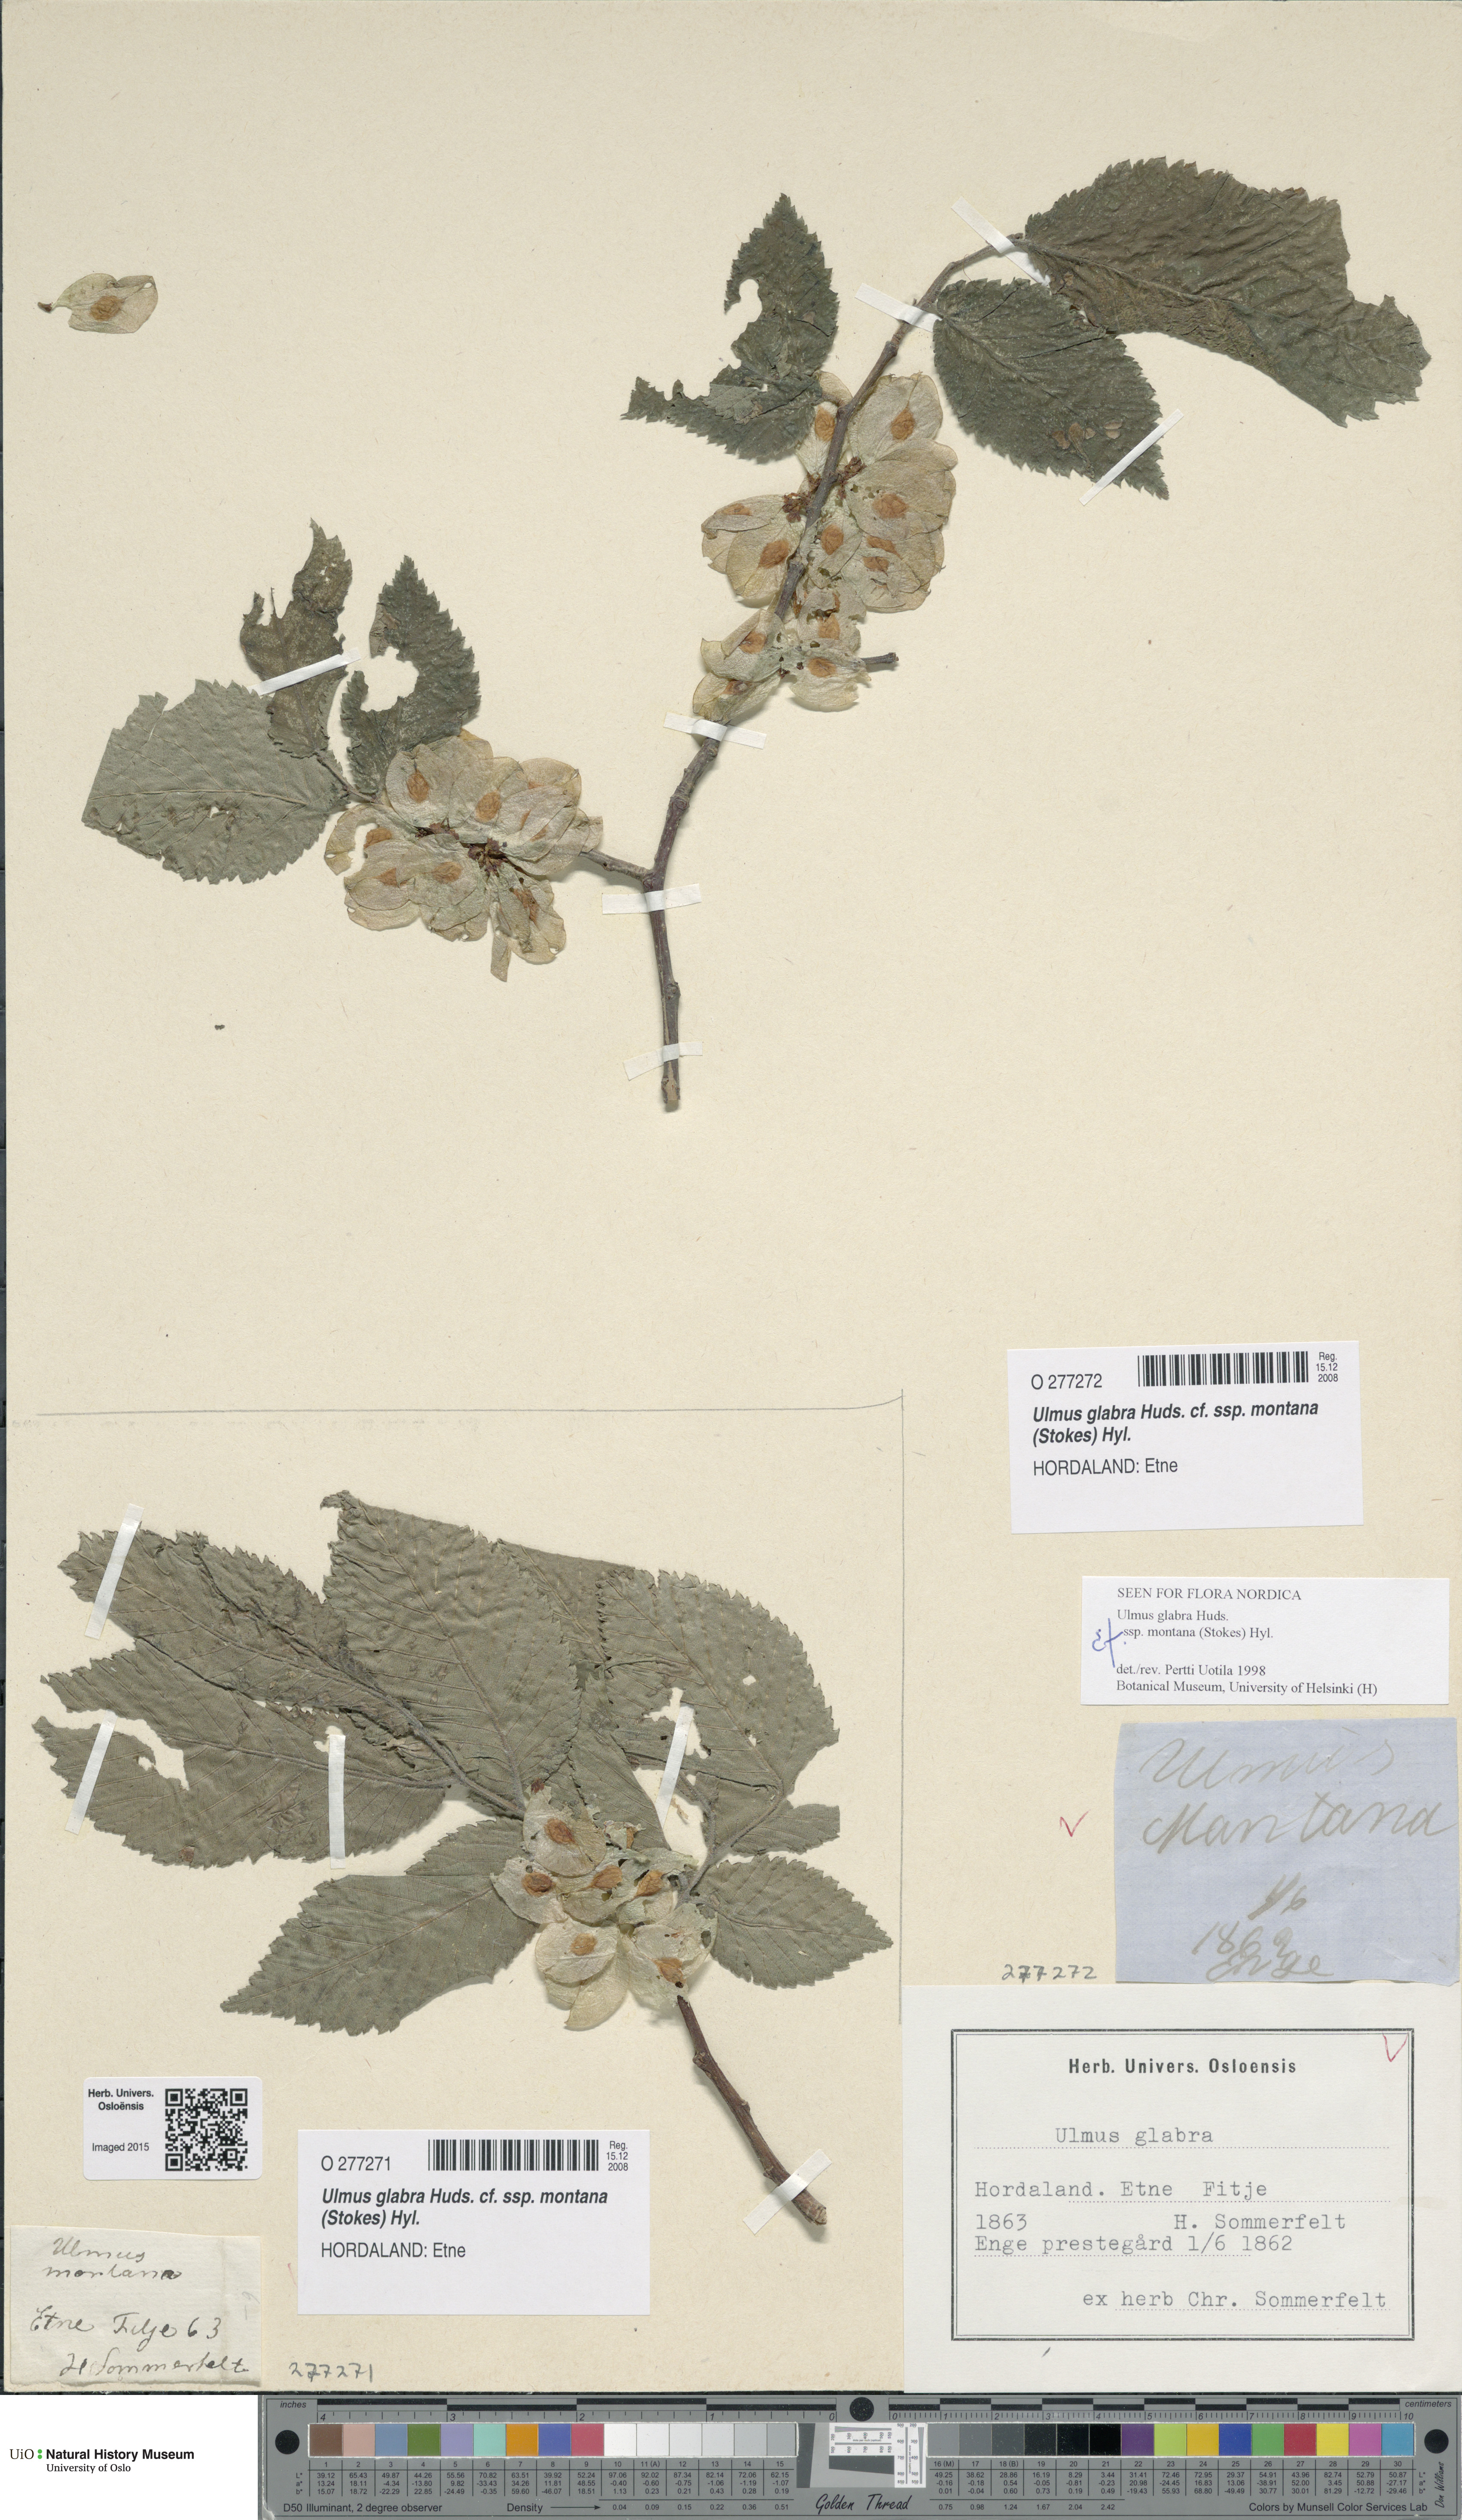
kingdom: Plantae
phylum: Tracheophyta
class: Magnoliopsida
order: Rosales
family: Ulmaceae
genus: Ulmus
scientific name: Ulmus glabra
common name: Wych elm
